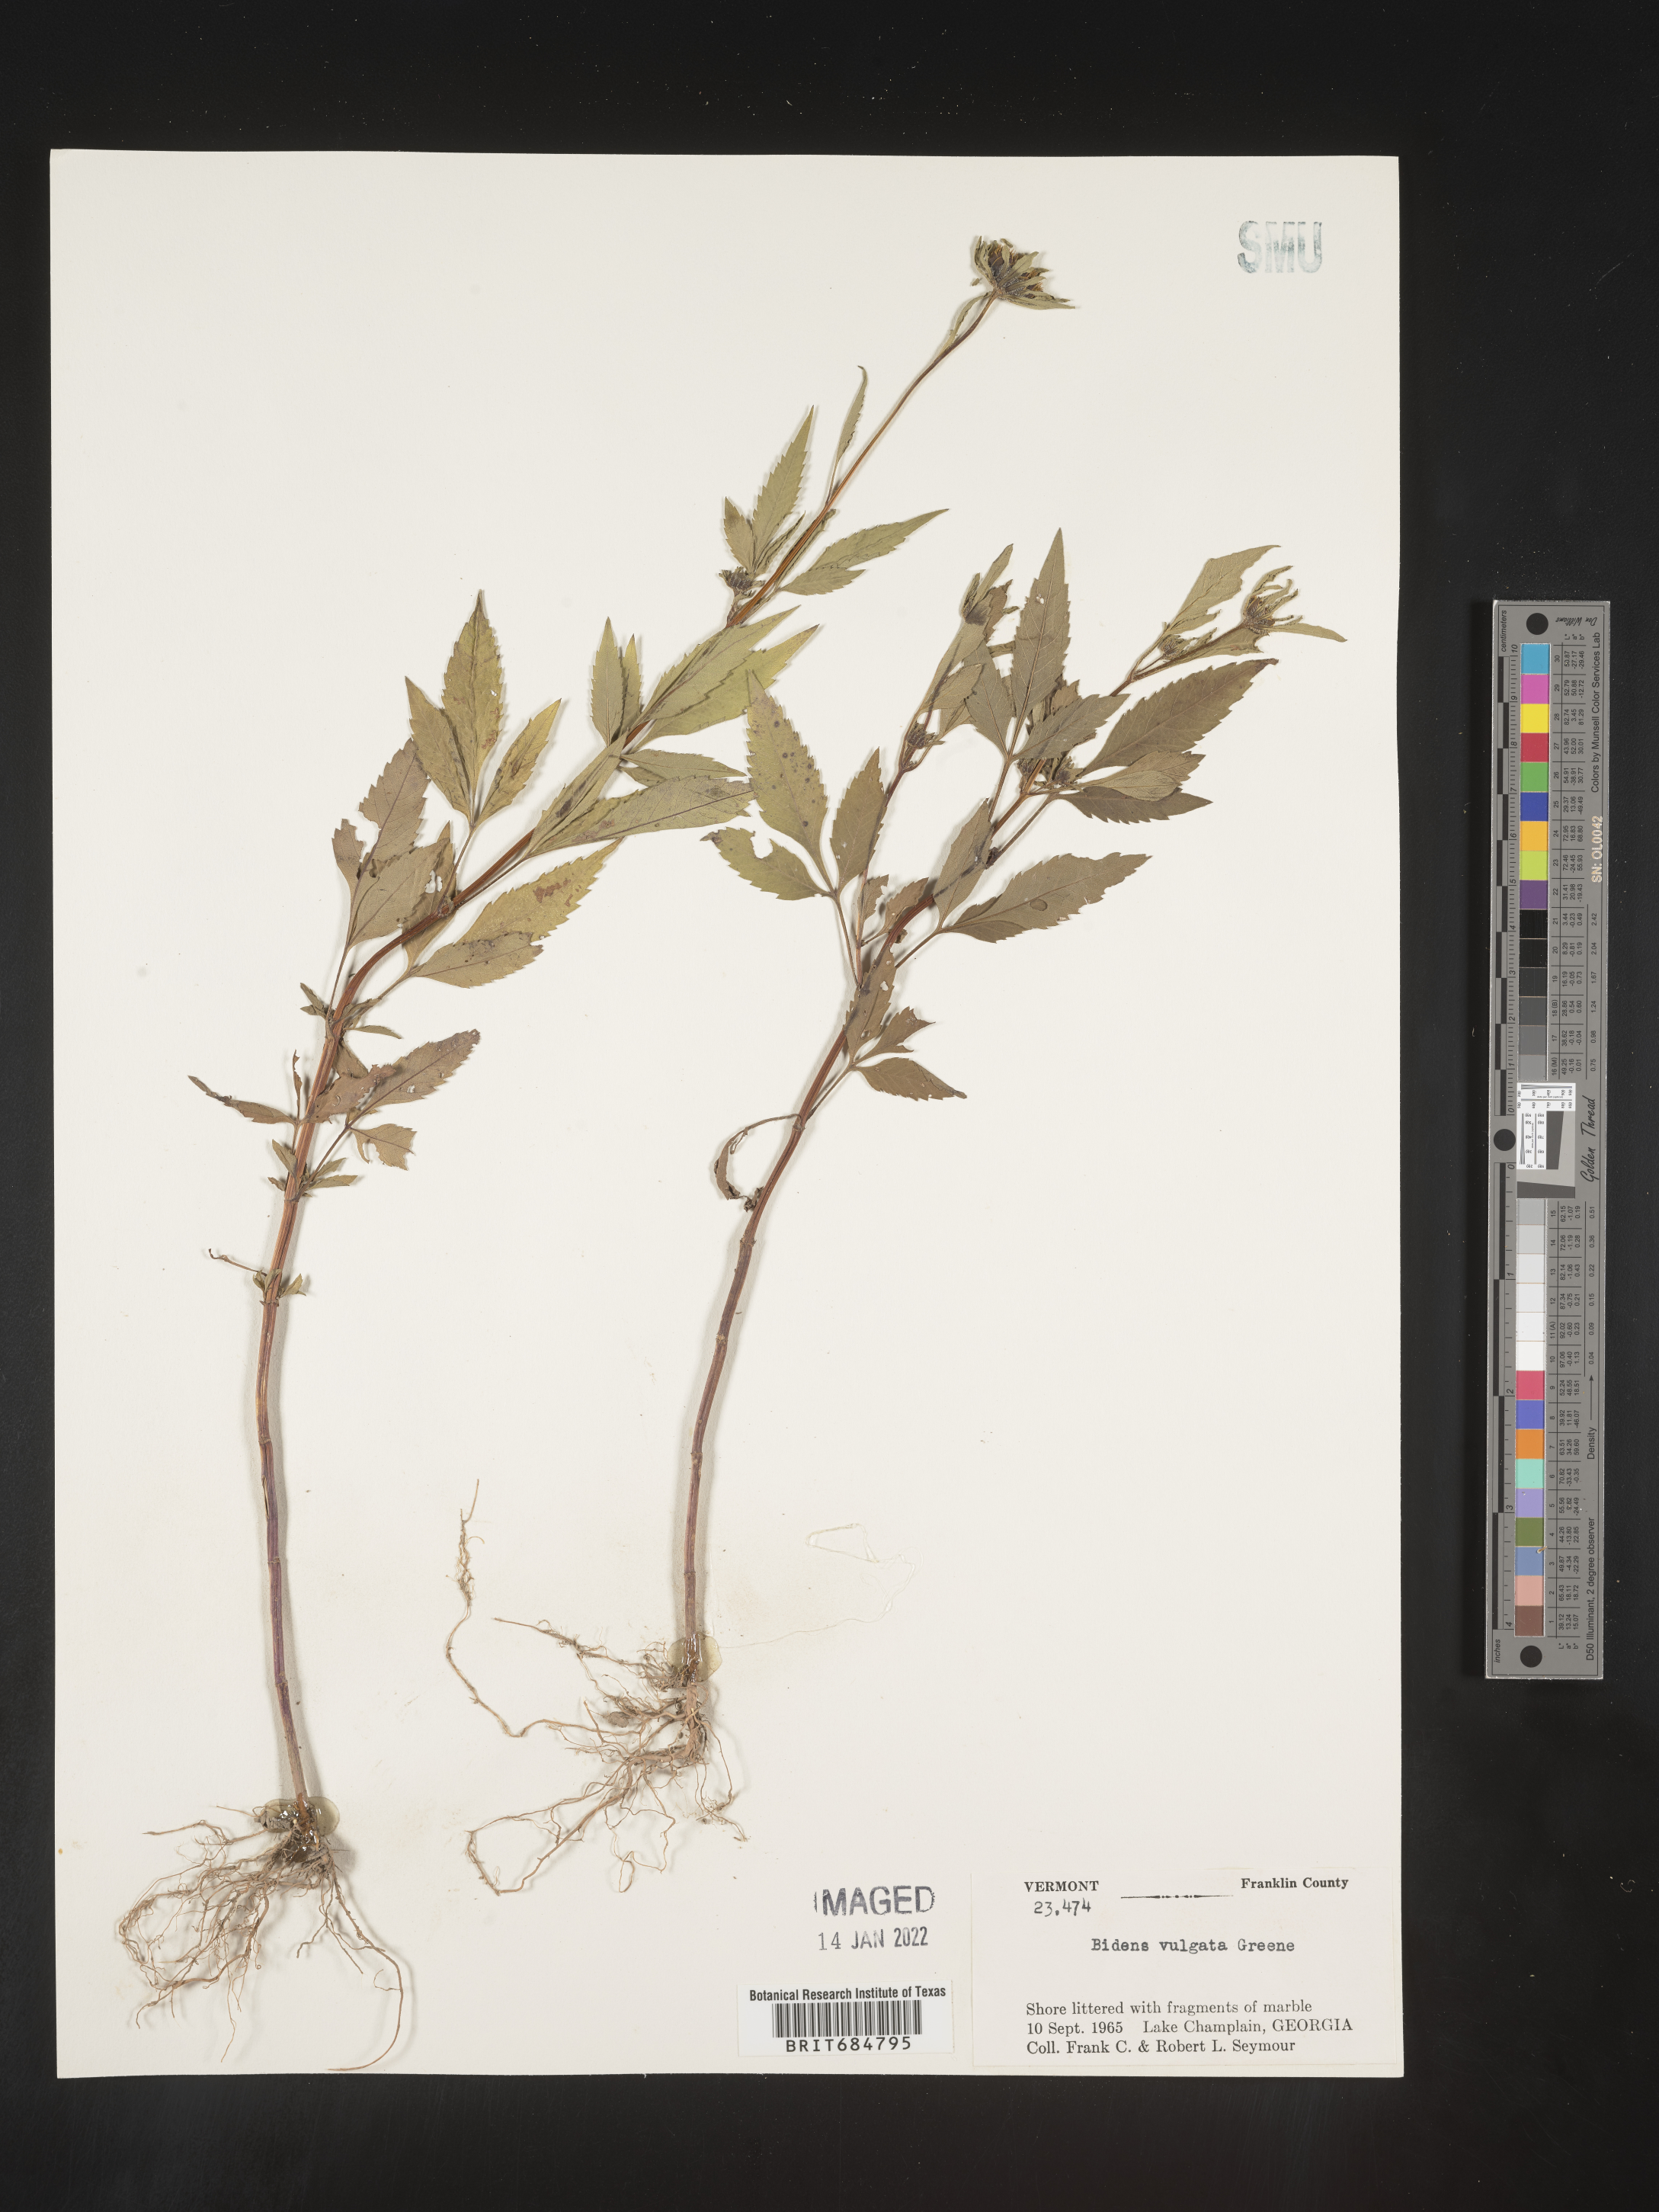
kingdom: Plantae
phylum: Tracheophyta
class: Magnoliopsida
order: Asterales
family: Asteraceae
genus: Bidens
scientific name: Bidens vulgata
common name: Tall beggarticks
